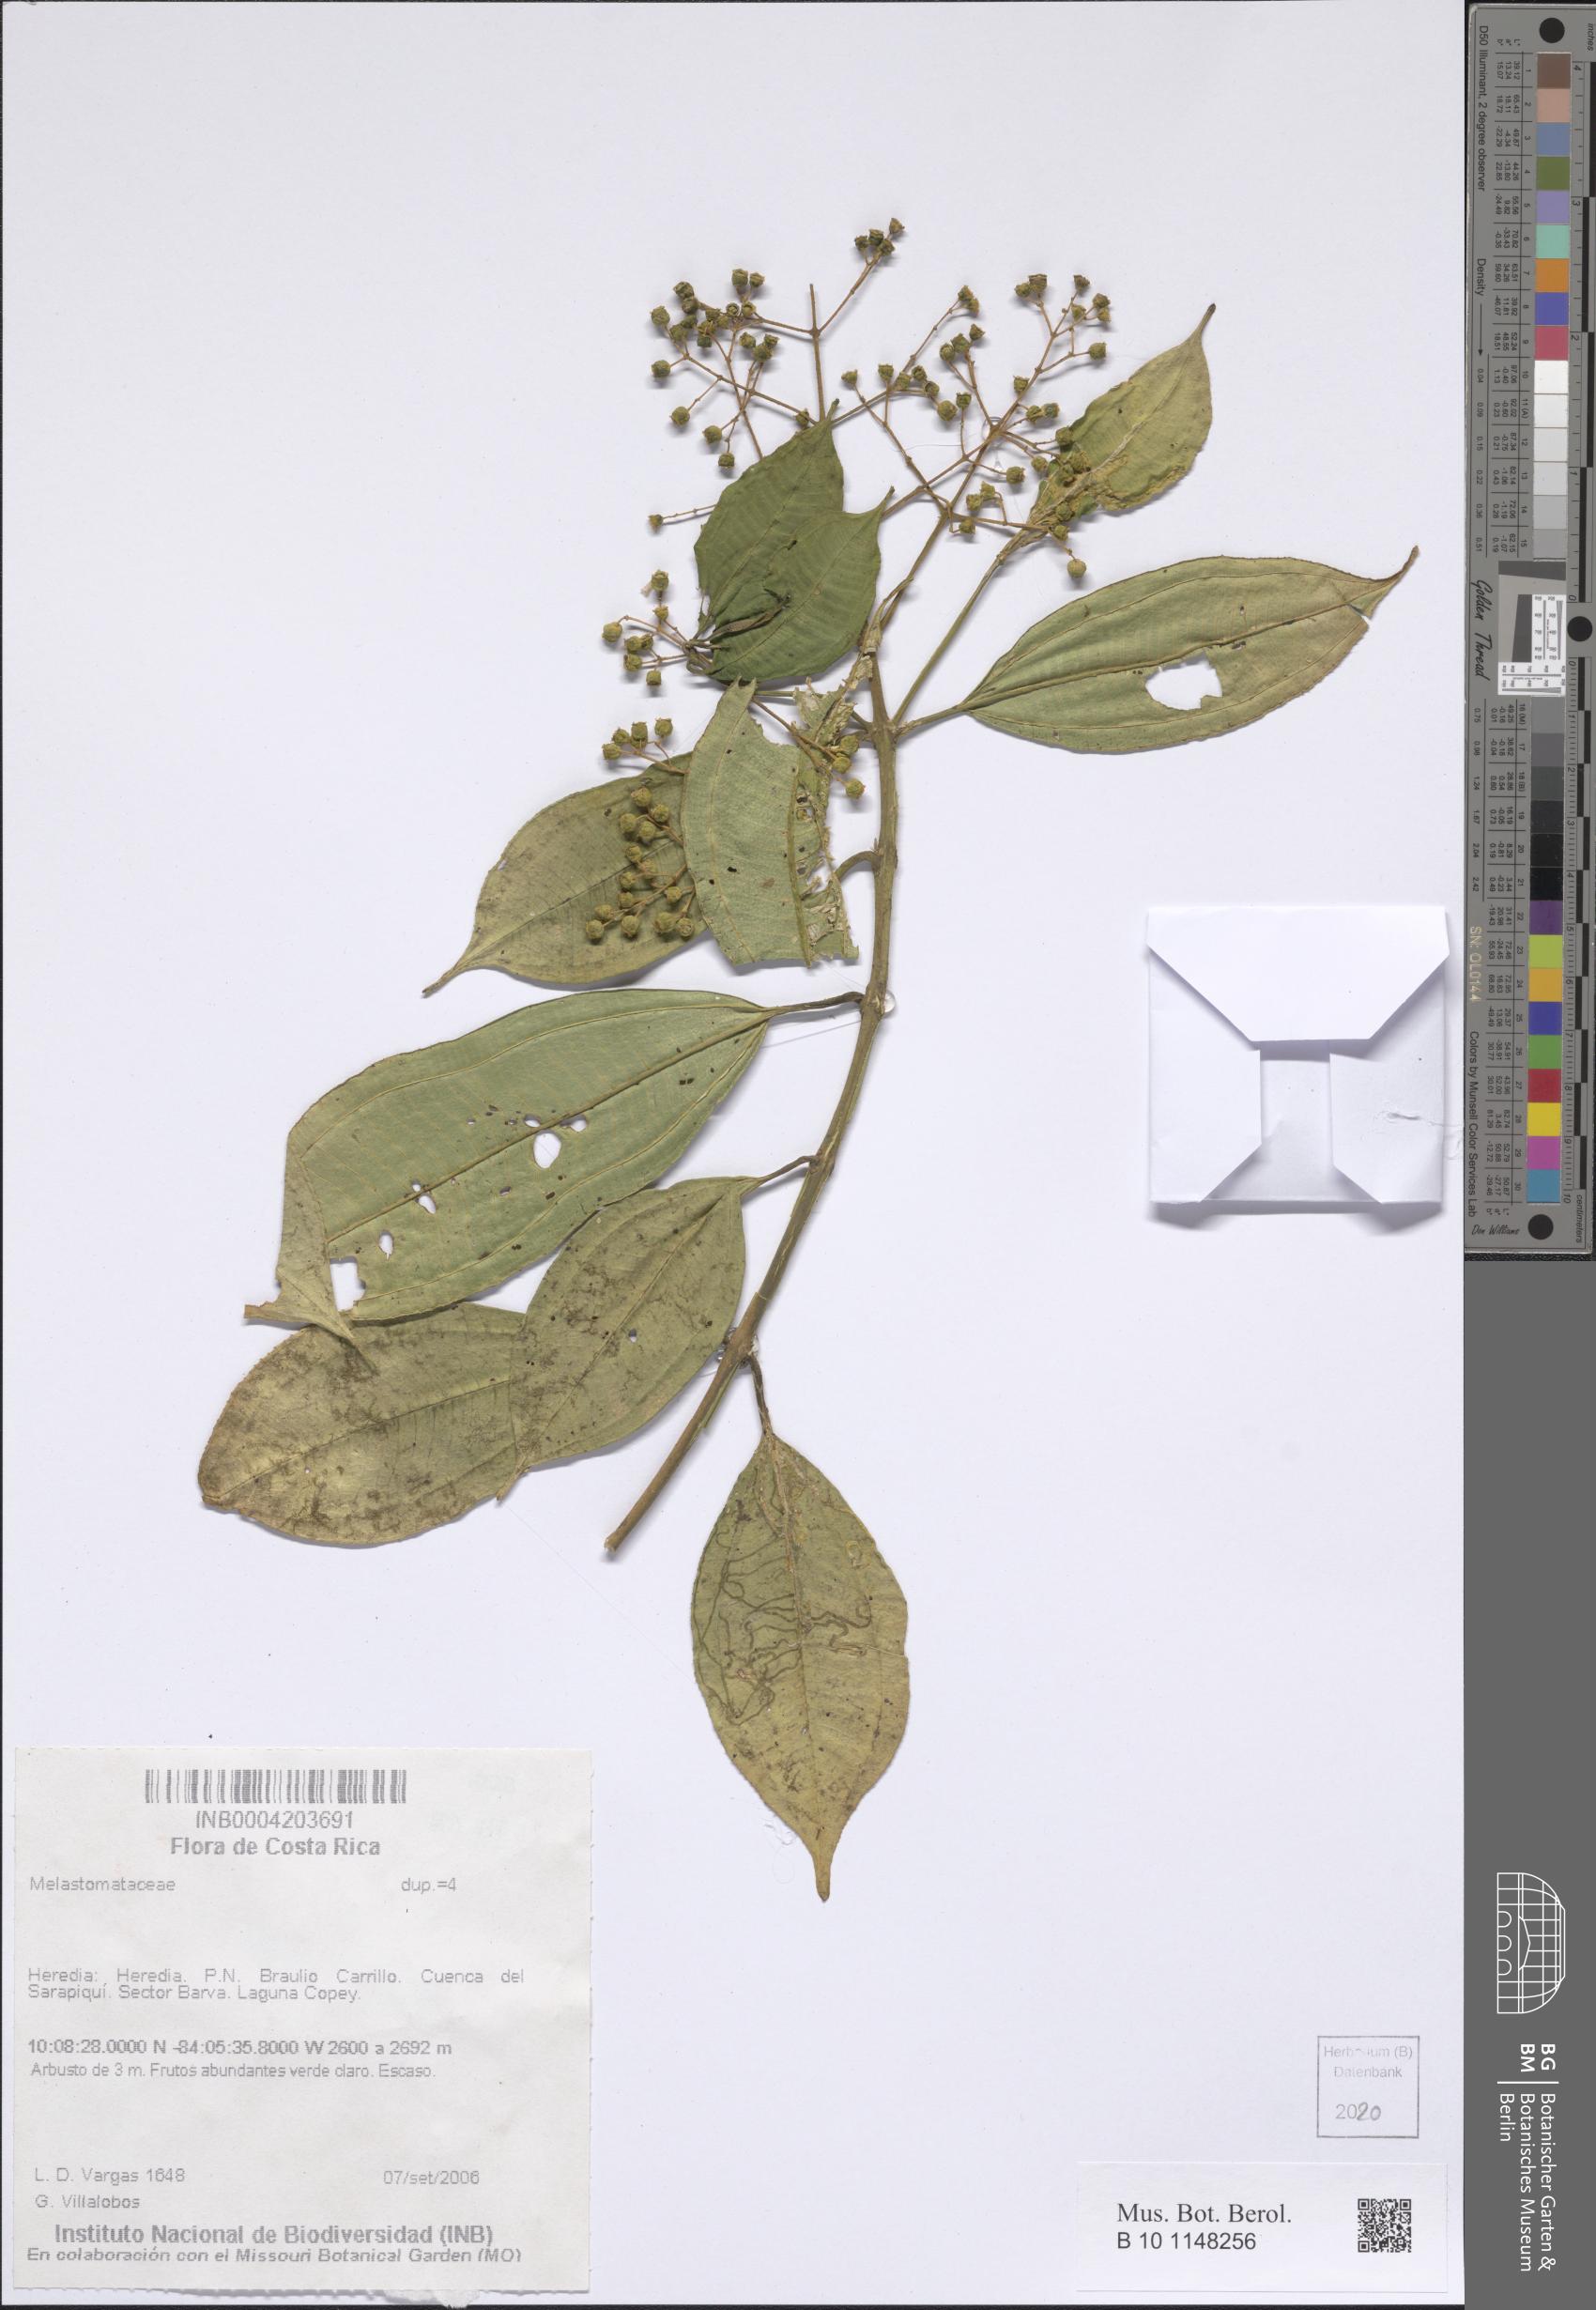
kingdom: Plantae
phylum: Tracheophyta
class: Magnoliopsida
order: Myrtales
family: Melastomataceae
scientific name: Melastomataceae
